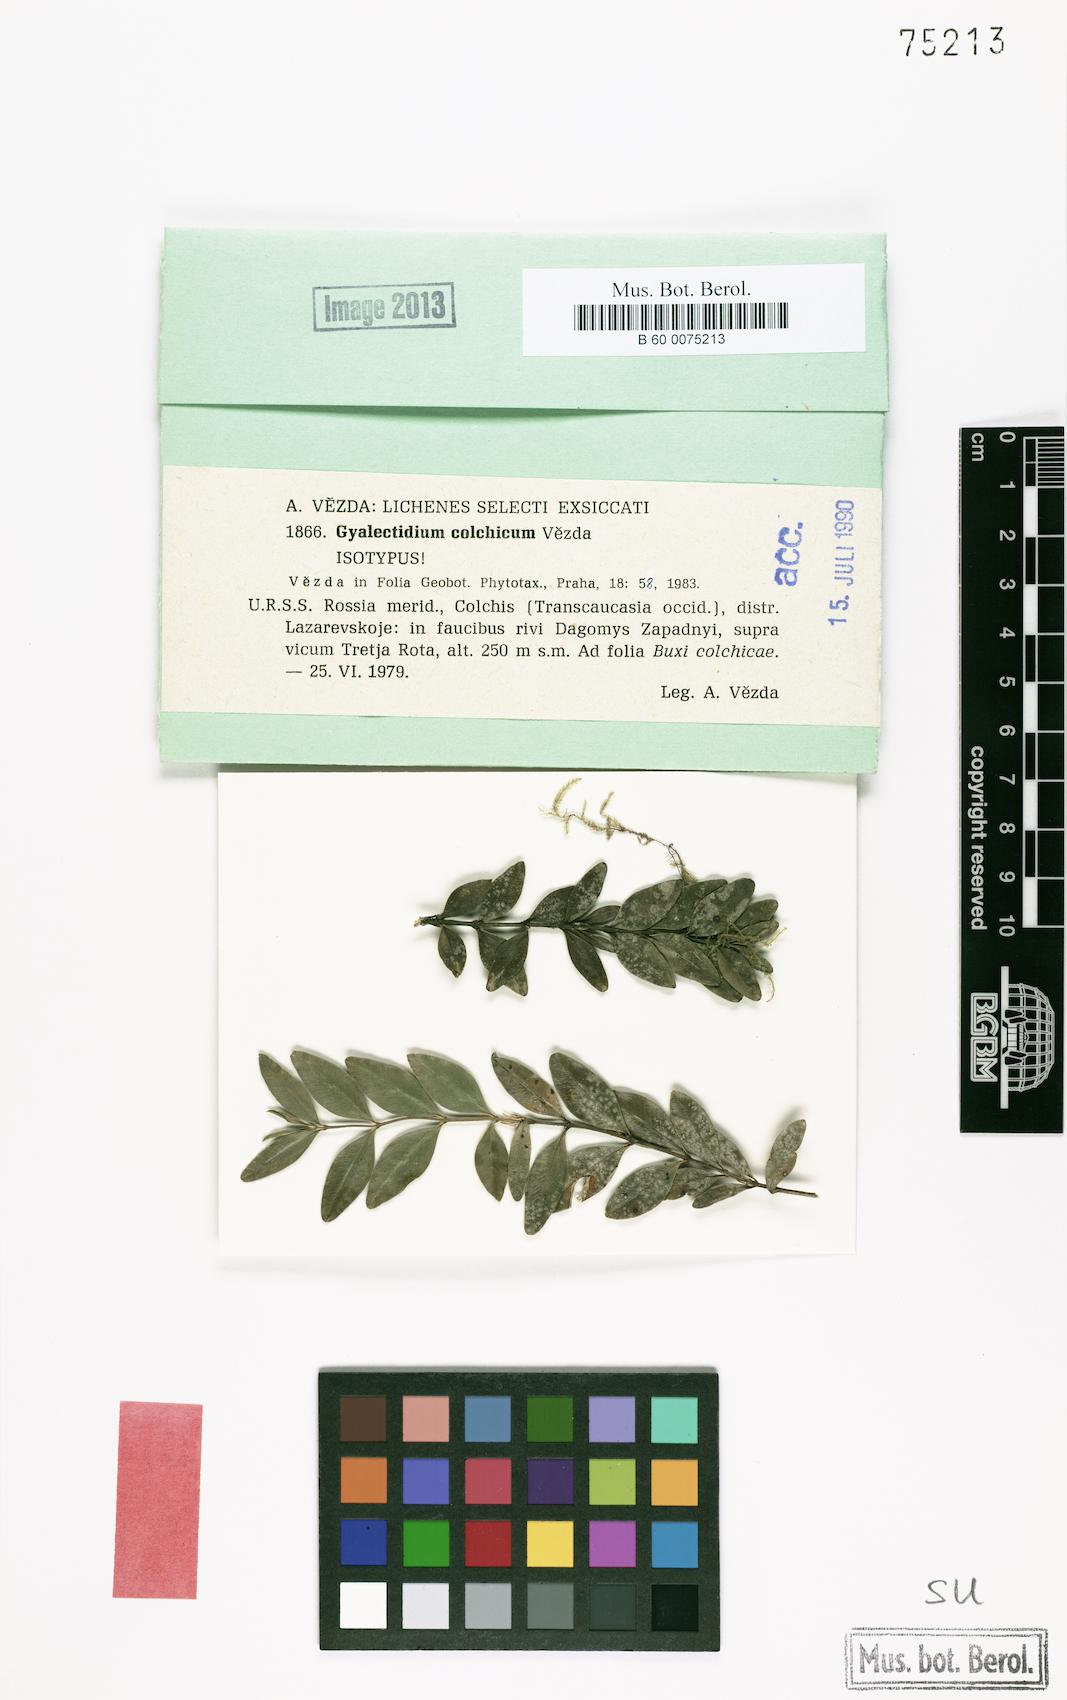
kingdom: Fungi
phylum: Ascomycota
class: Lecanoromycetes
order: Ostropales
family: Gomphillaceae
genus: Gyalectidium
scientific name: Gyalectidium colchicum
